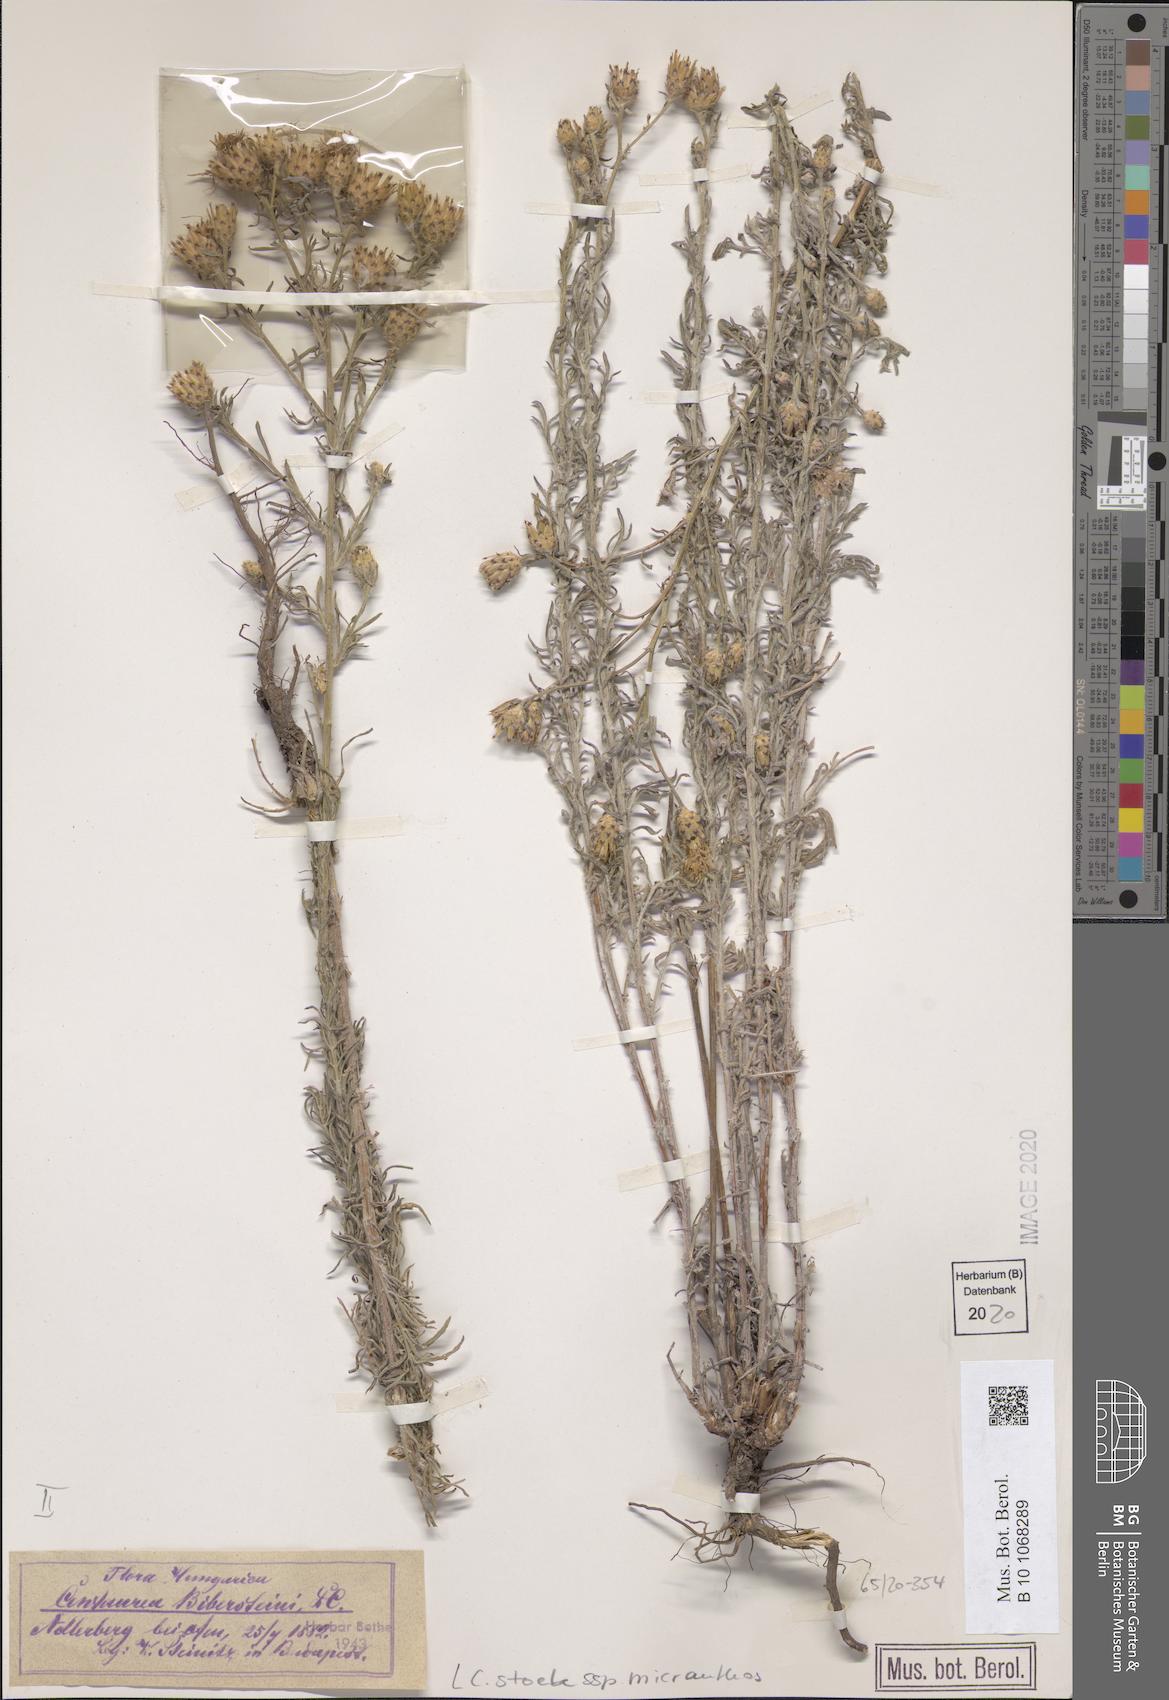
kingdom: Plantae
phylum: Tracheophyta
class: Magnoliopsida
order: Asterales
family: Asteraceae
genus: Centaurea
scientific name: Centaurea australis
